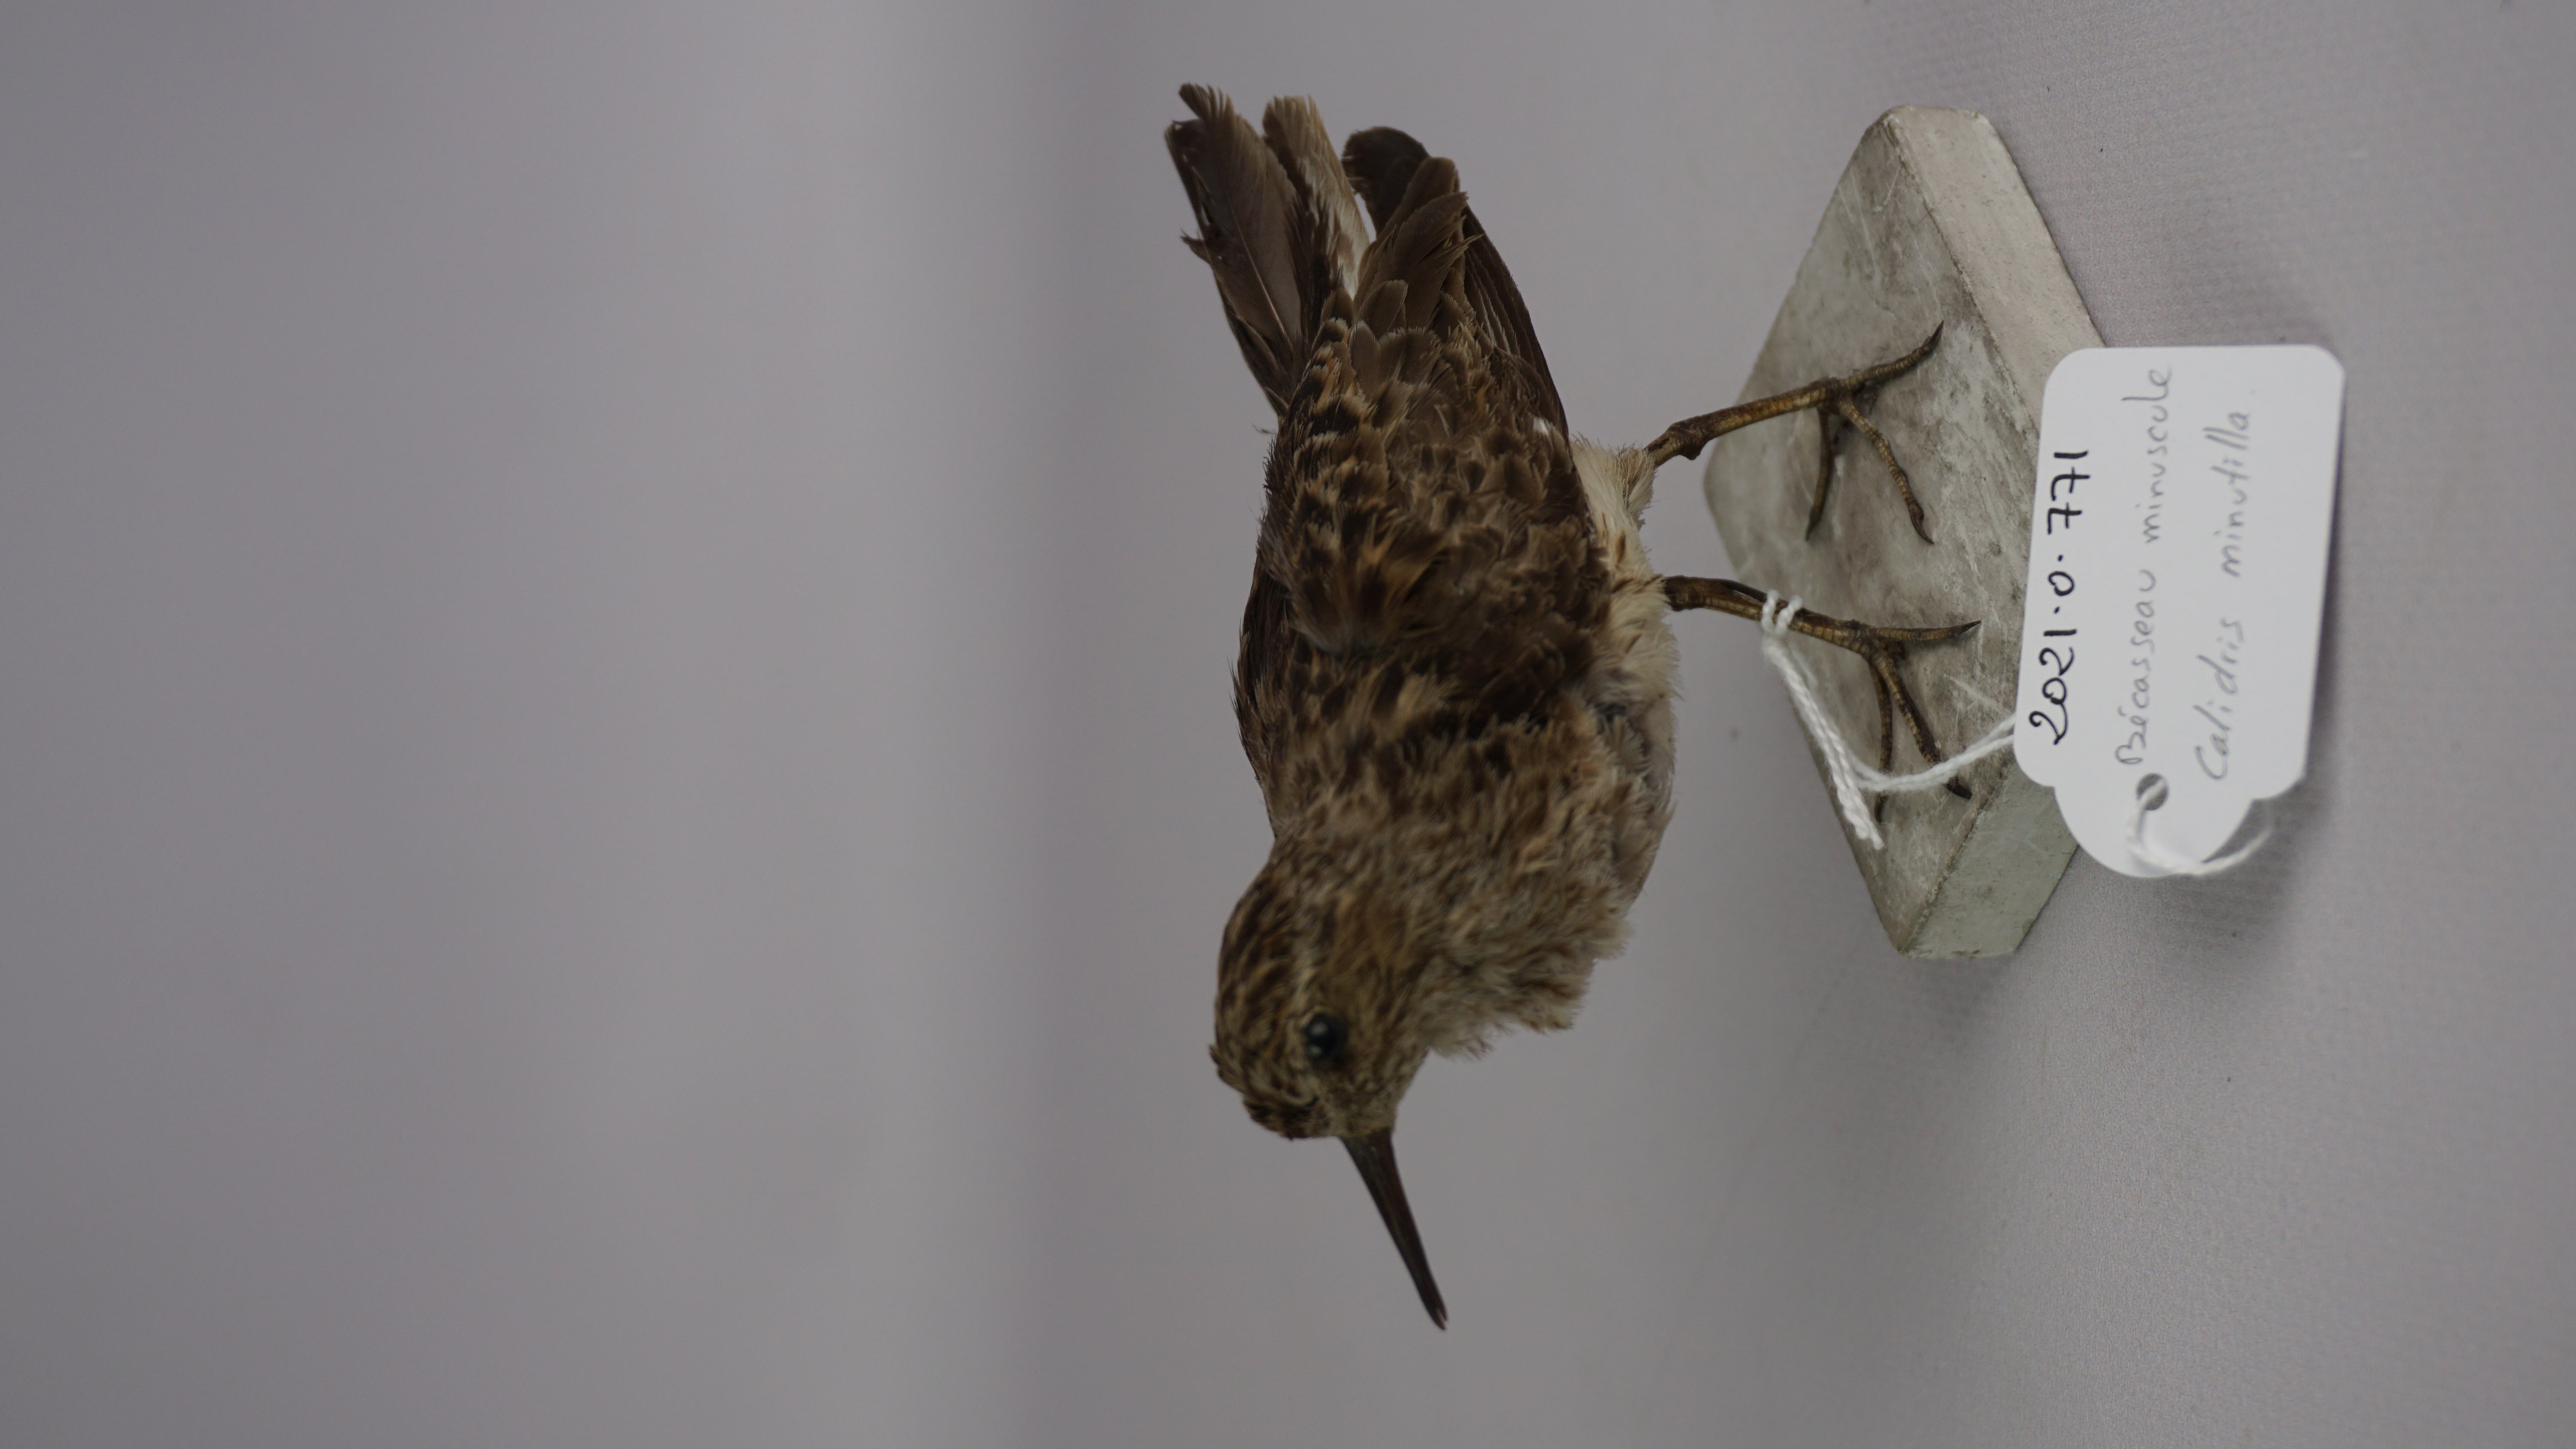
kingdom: Animalia
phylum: Chordata
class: Aves
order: Charadriiformes
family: Scolopacidae
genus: Calidris
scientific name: Calidris minutilla
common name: Least sandpiper
